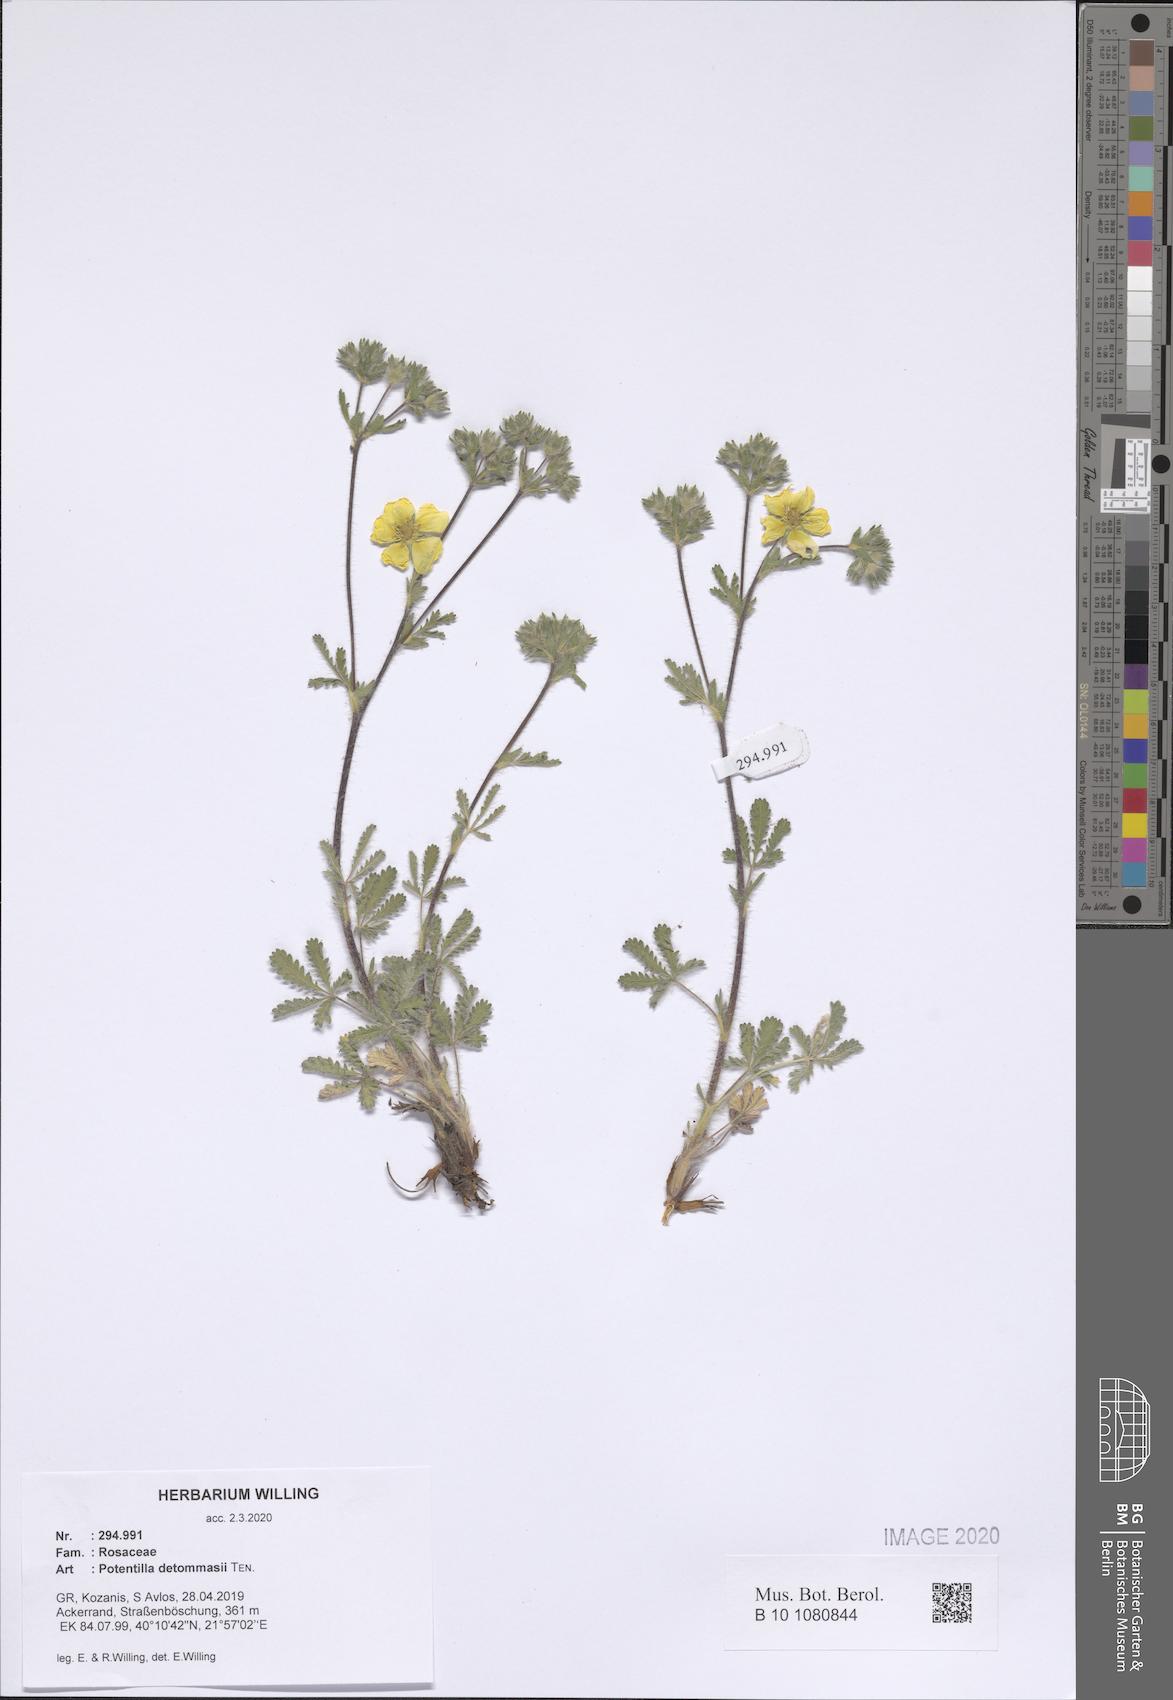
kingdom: Plantae
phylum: Tracheophyta
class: Magnoliopsida
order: Rosales
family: Rosaceae
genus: Potentilla
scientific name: Potentilla detommasii
